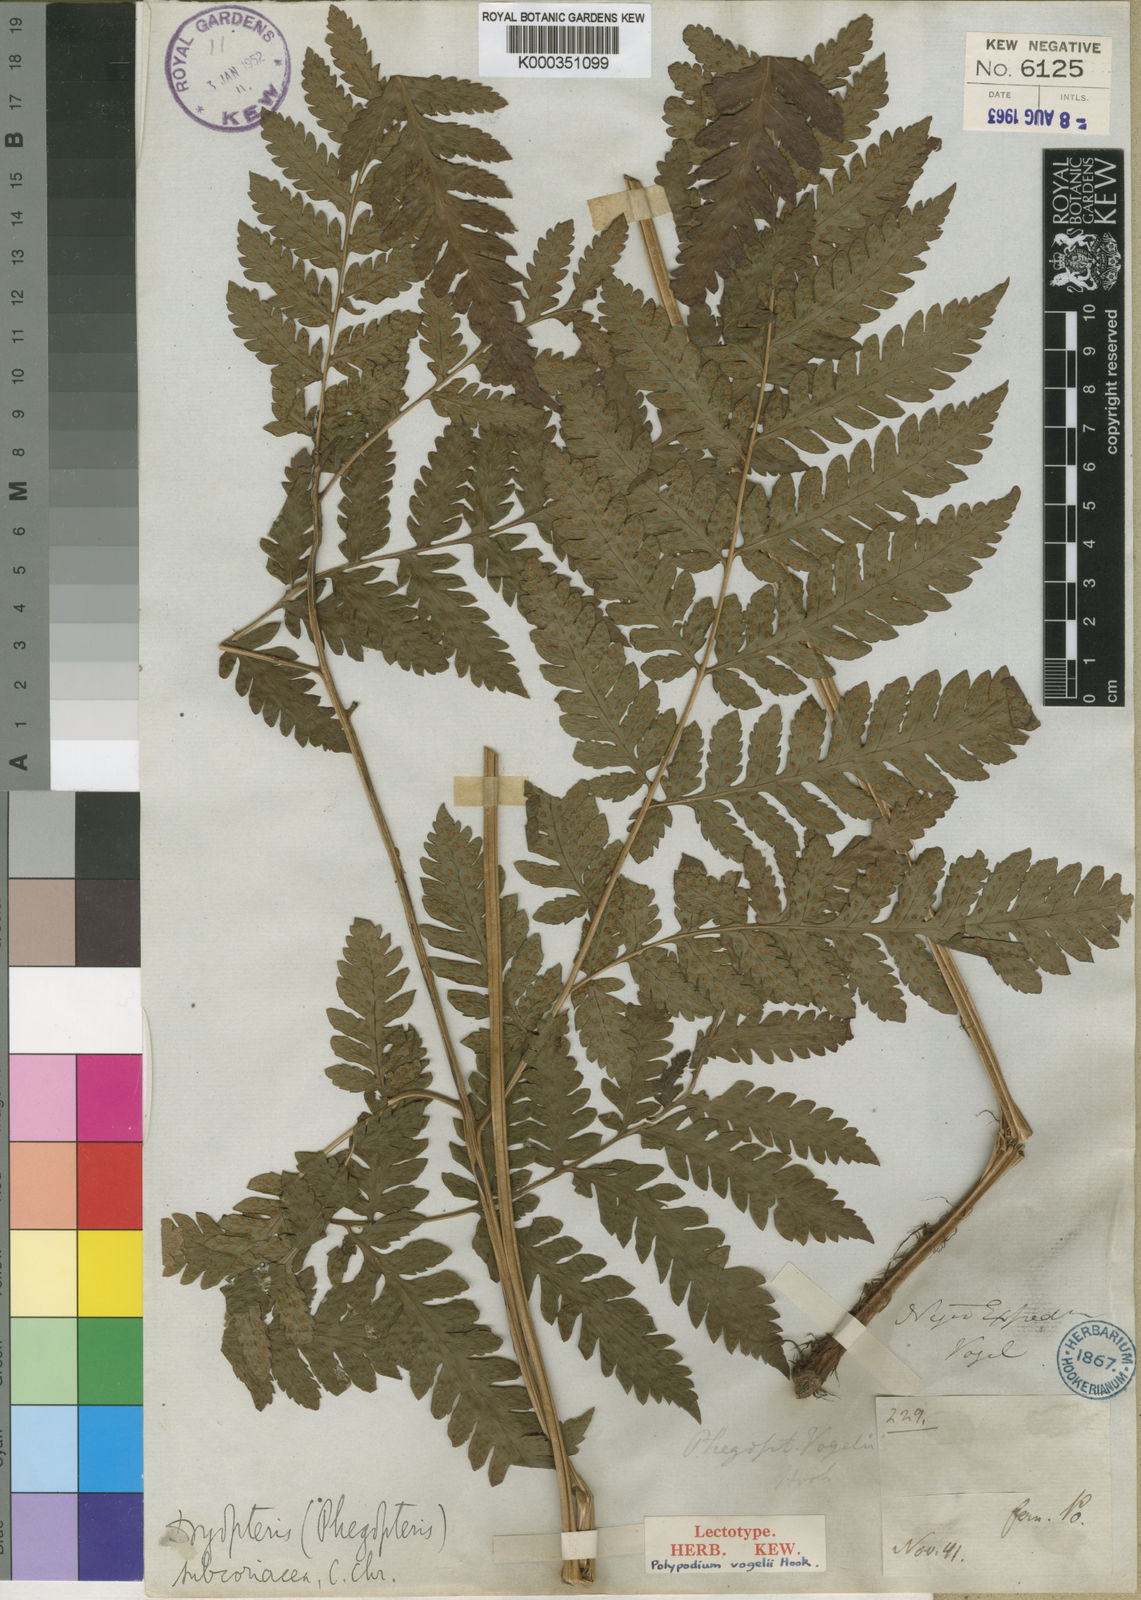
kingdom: Plantae
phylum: Tracheophyta
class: Polypodiopsida
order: Polypodiales
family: Dryopteridaceae
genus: Parapolystichum
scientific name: Parapolystichum vogelii
